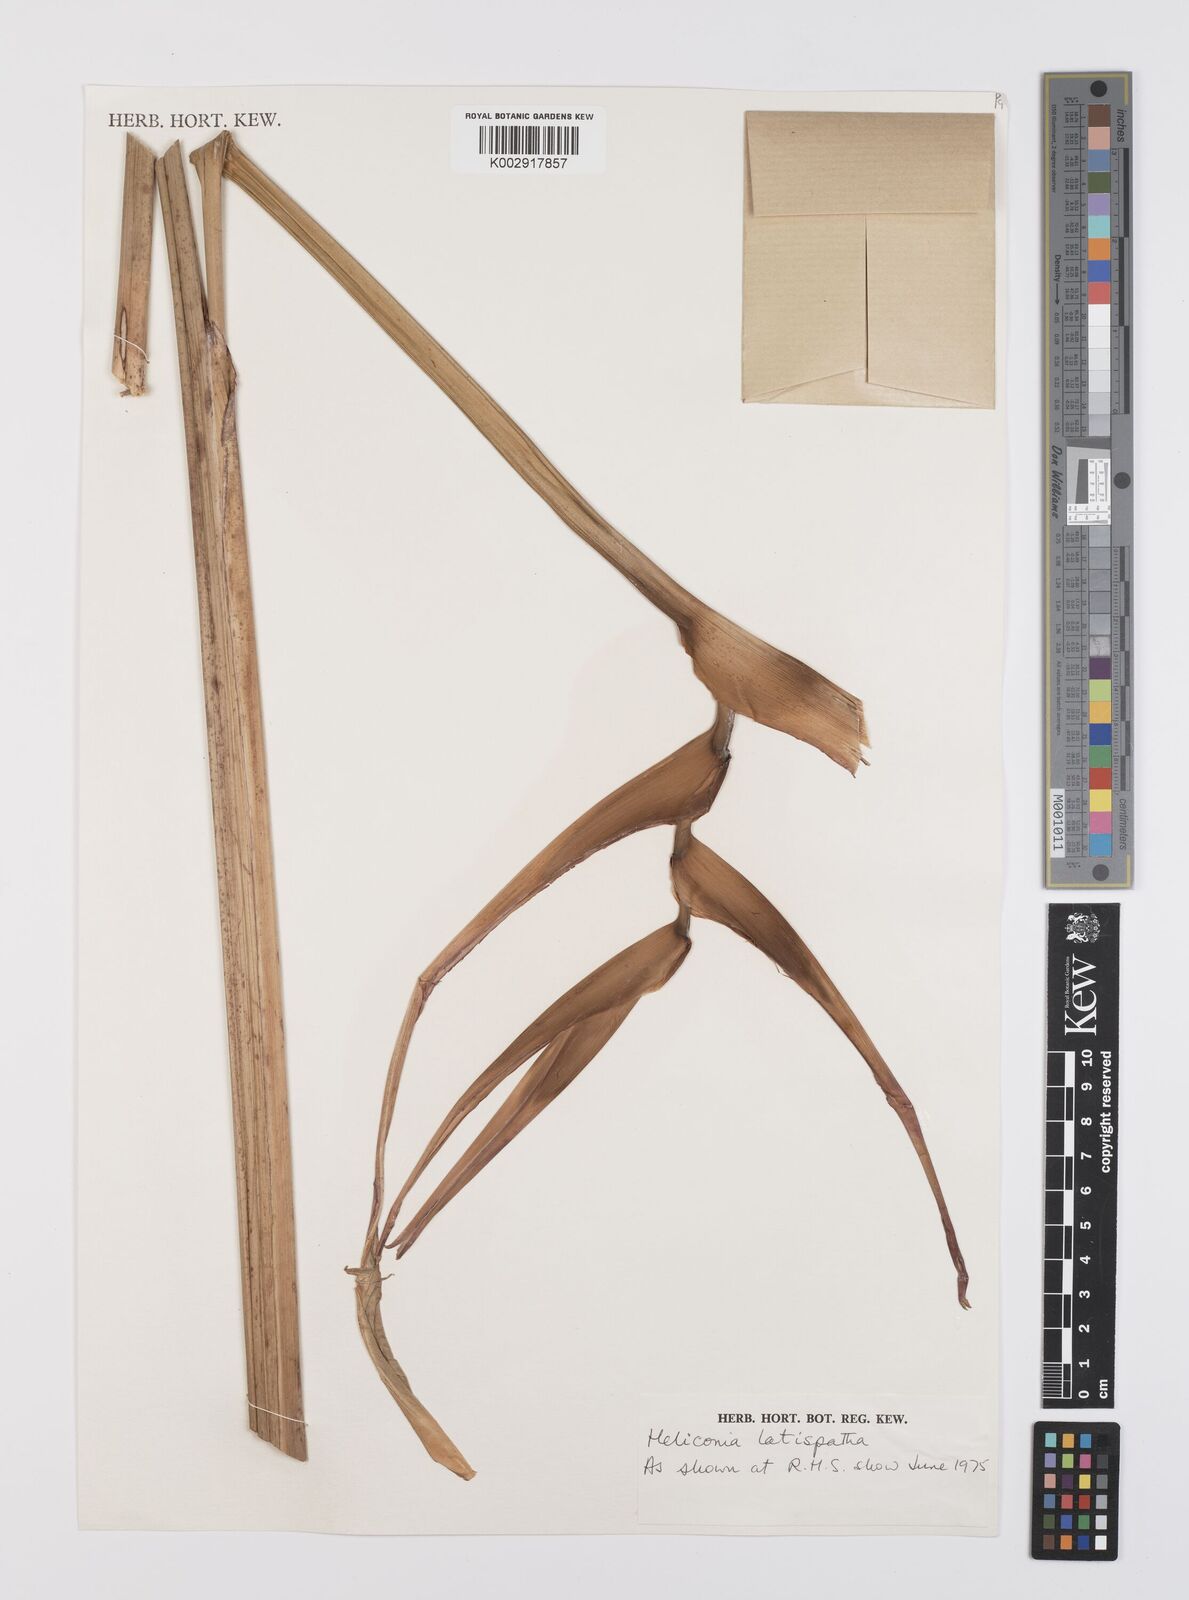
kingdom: Plantae
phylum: Tracheophyta
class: Liliopsida
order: Zingiberales
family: Heliconiaceae
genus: Heliconia
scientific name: Heliconia latispatha
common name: Expanded lobsterclaw
